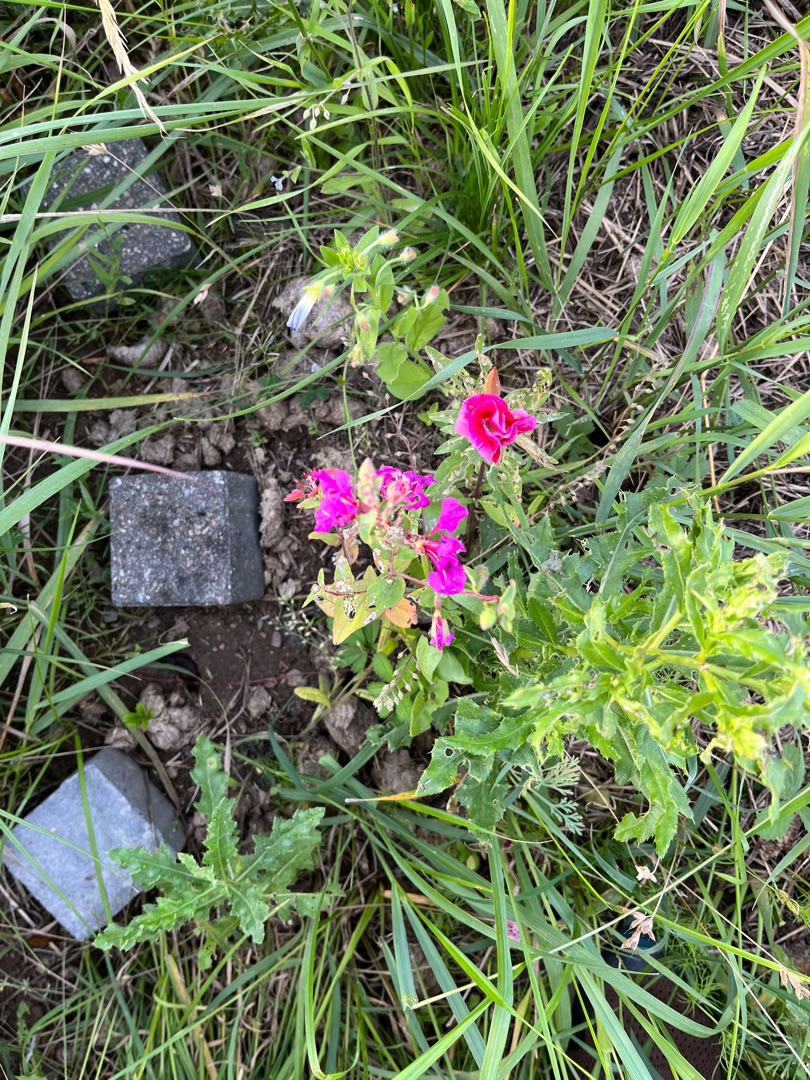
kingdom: Plantae
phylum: Tracheophyta
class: Magnoliopsida
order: Myrtales
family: Onagraceae
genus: Clarkia
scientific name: Clarkia unguiculata
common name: Mølleblomst
